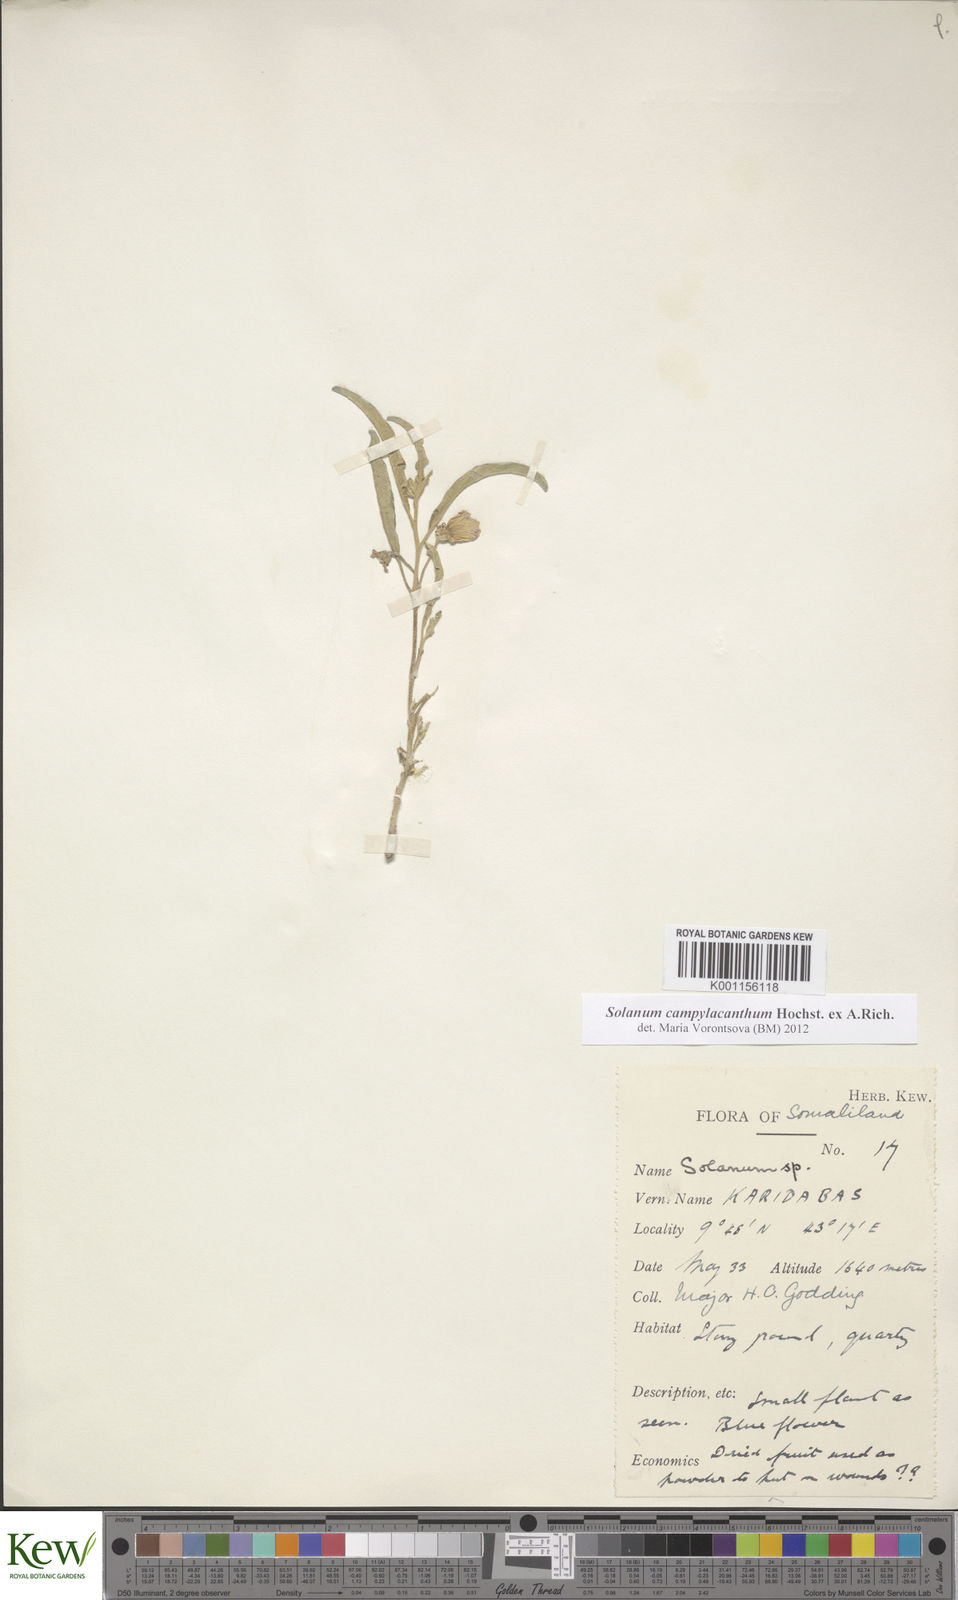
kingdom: Plantae
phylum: Tracheophyta
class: Magnoliopsida
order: Solanales
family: Solanaceae
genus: Solanum
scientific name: Solanum campylacanthum
